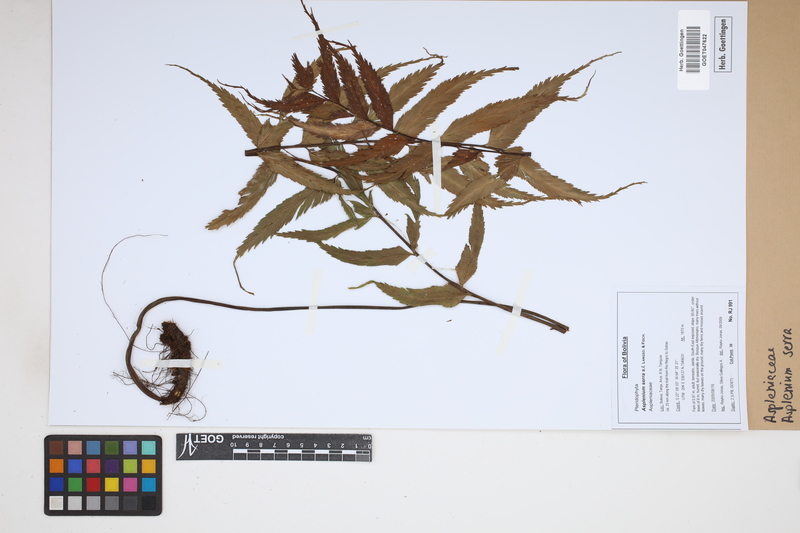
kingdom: Plantae
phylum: Tracheophyta
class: Polypodiopsida
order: Polypodiales
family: Aspleniaceae
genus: Asplenium
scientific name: Asplenium serra
